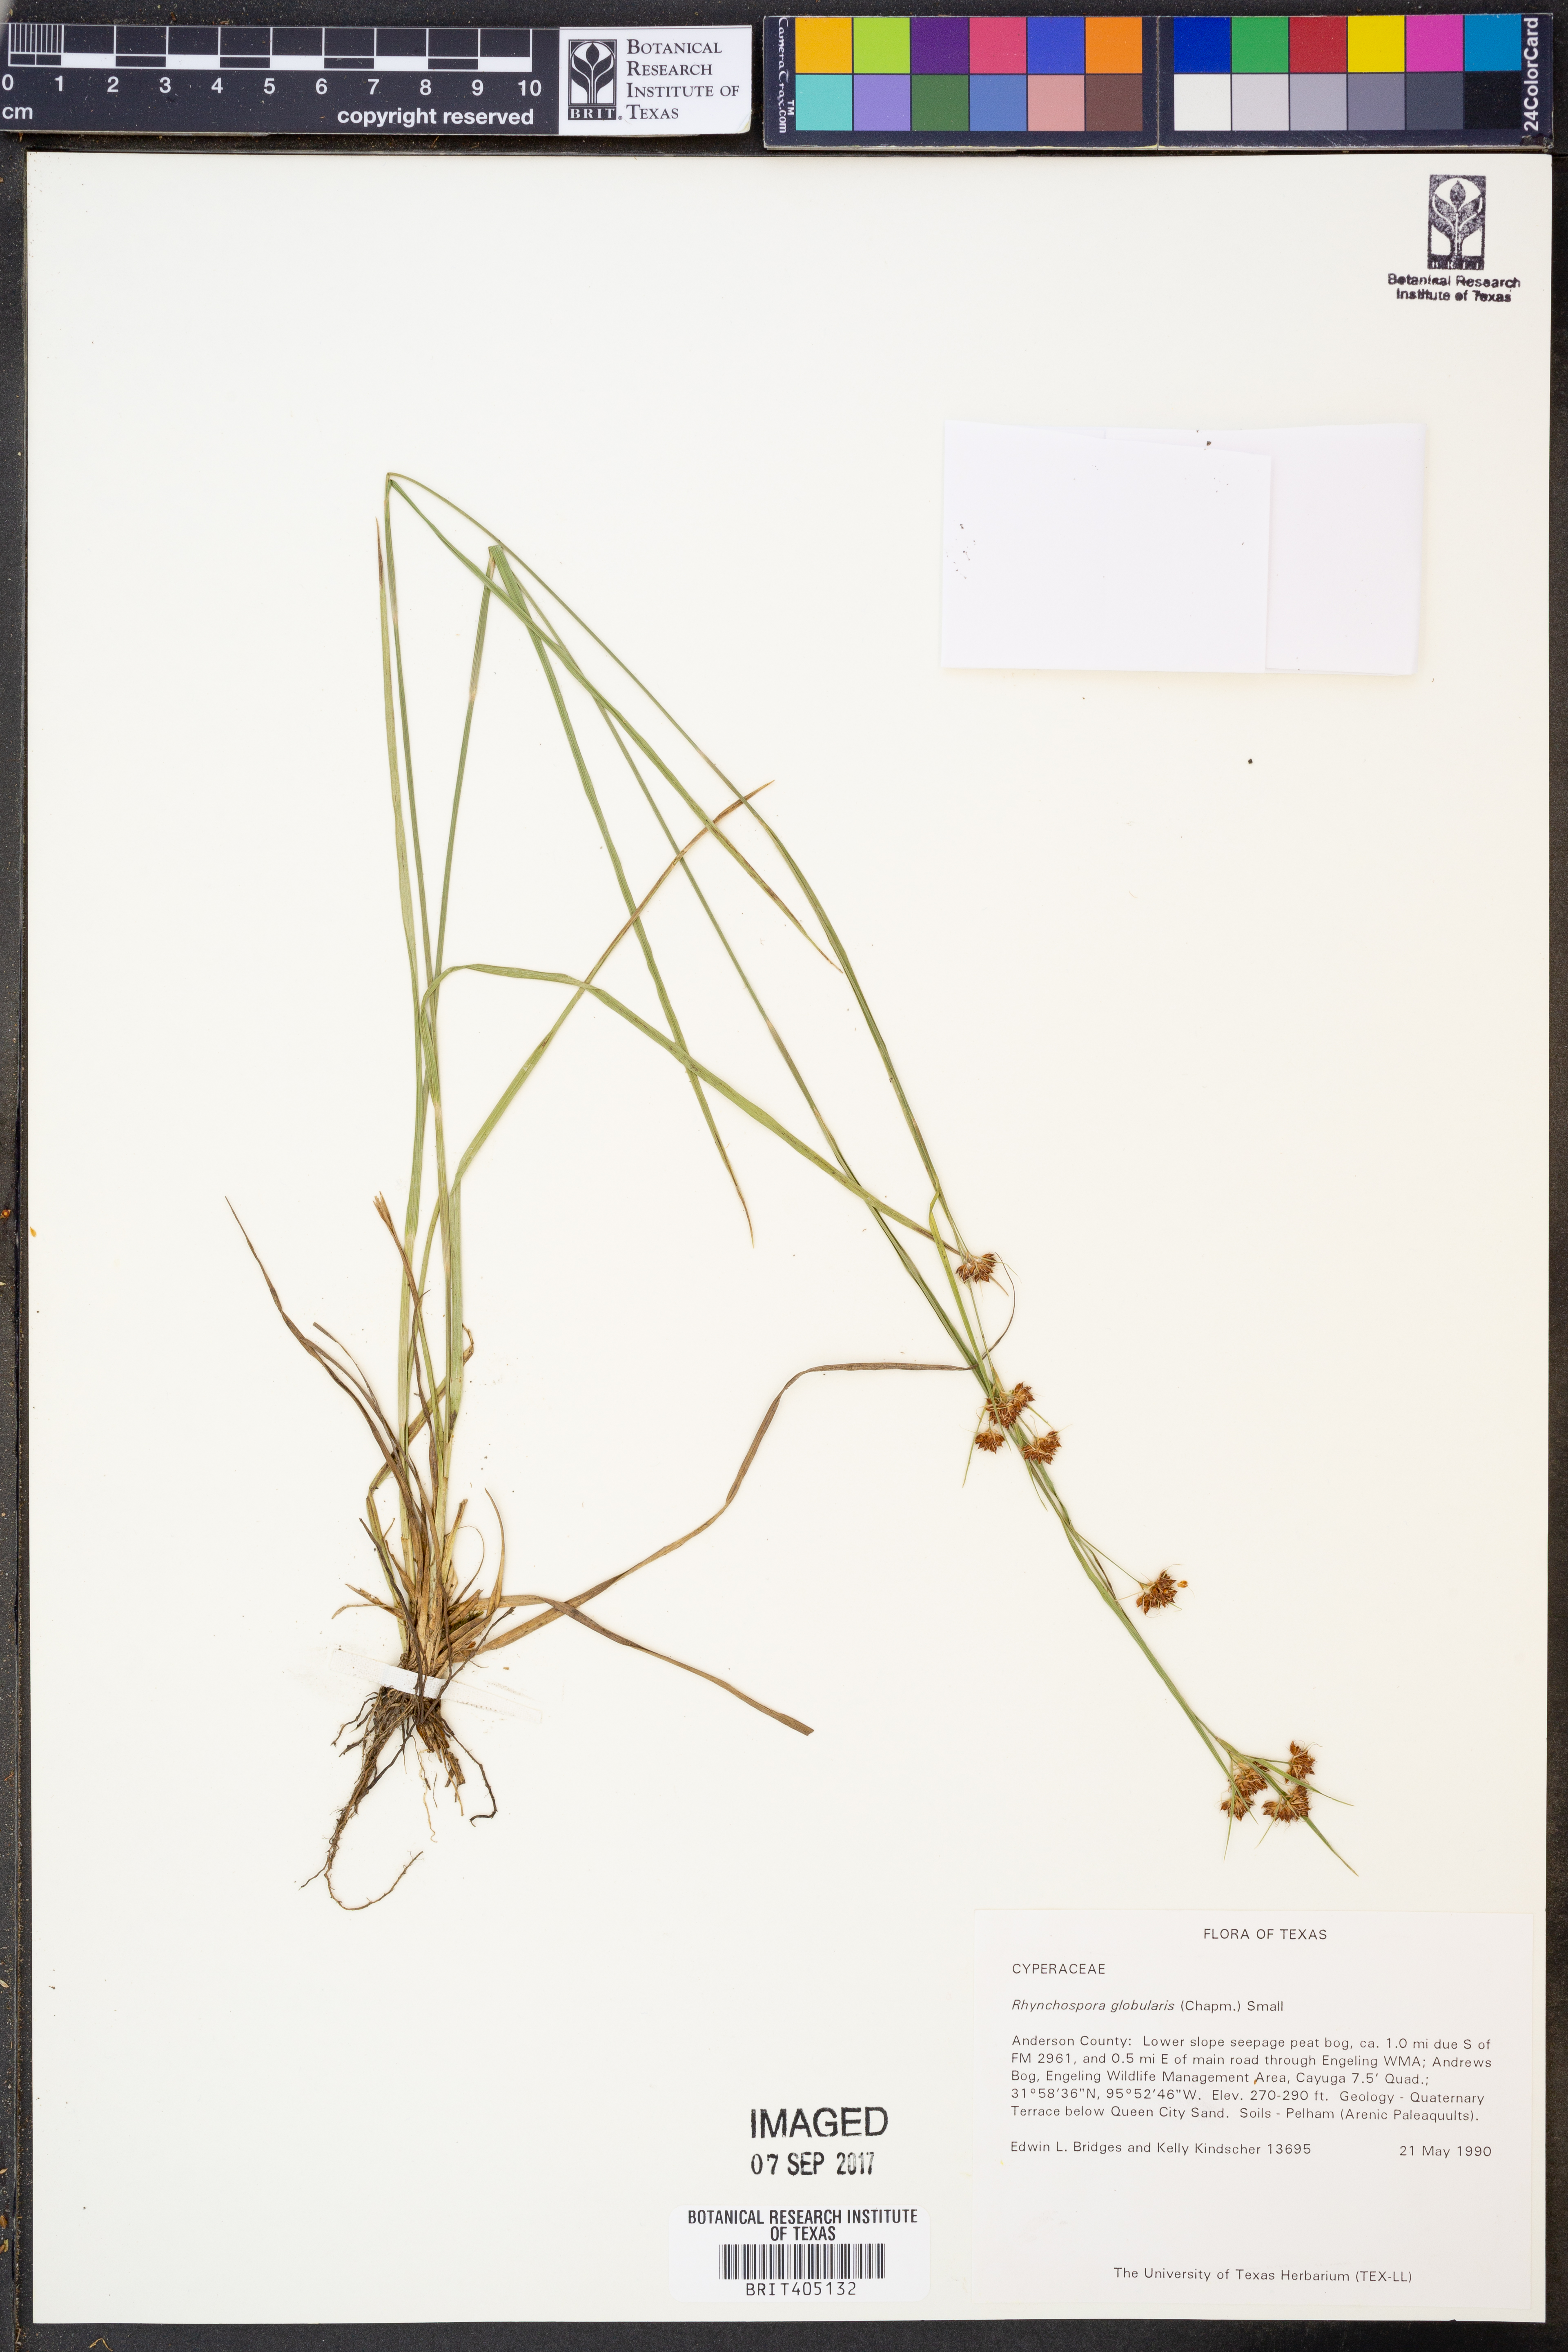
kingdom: Plantae
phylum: Tracheophyta
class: Liliopsida
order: Poales
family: Cyperaceae
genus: Rhynchospora
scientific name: Rhynchospora globularis
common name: Globe beaksedge
